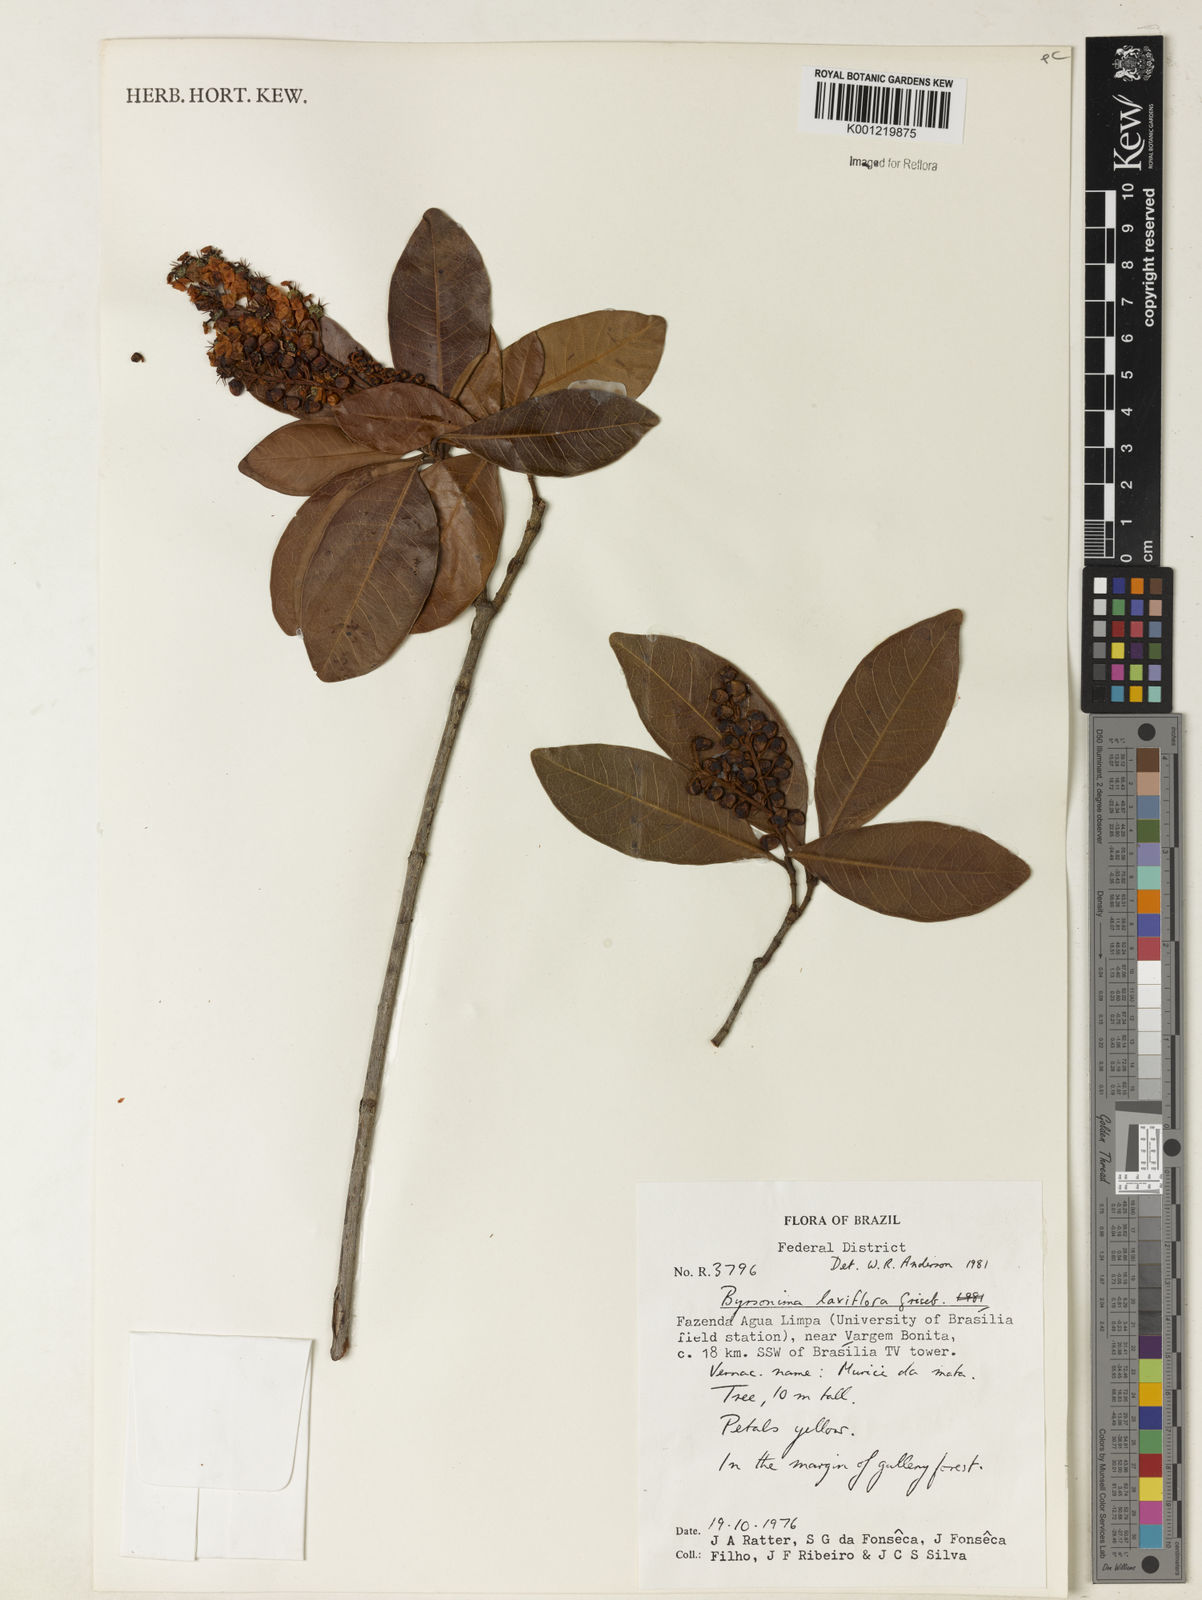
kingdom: Plantae
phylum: Tracheophyta
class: Magnoliopsida
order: Malpighiales
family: Malpighiaceae
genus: Byrsonima
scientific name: Byrsonima laxiflora
